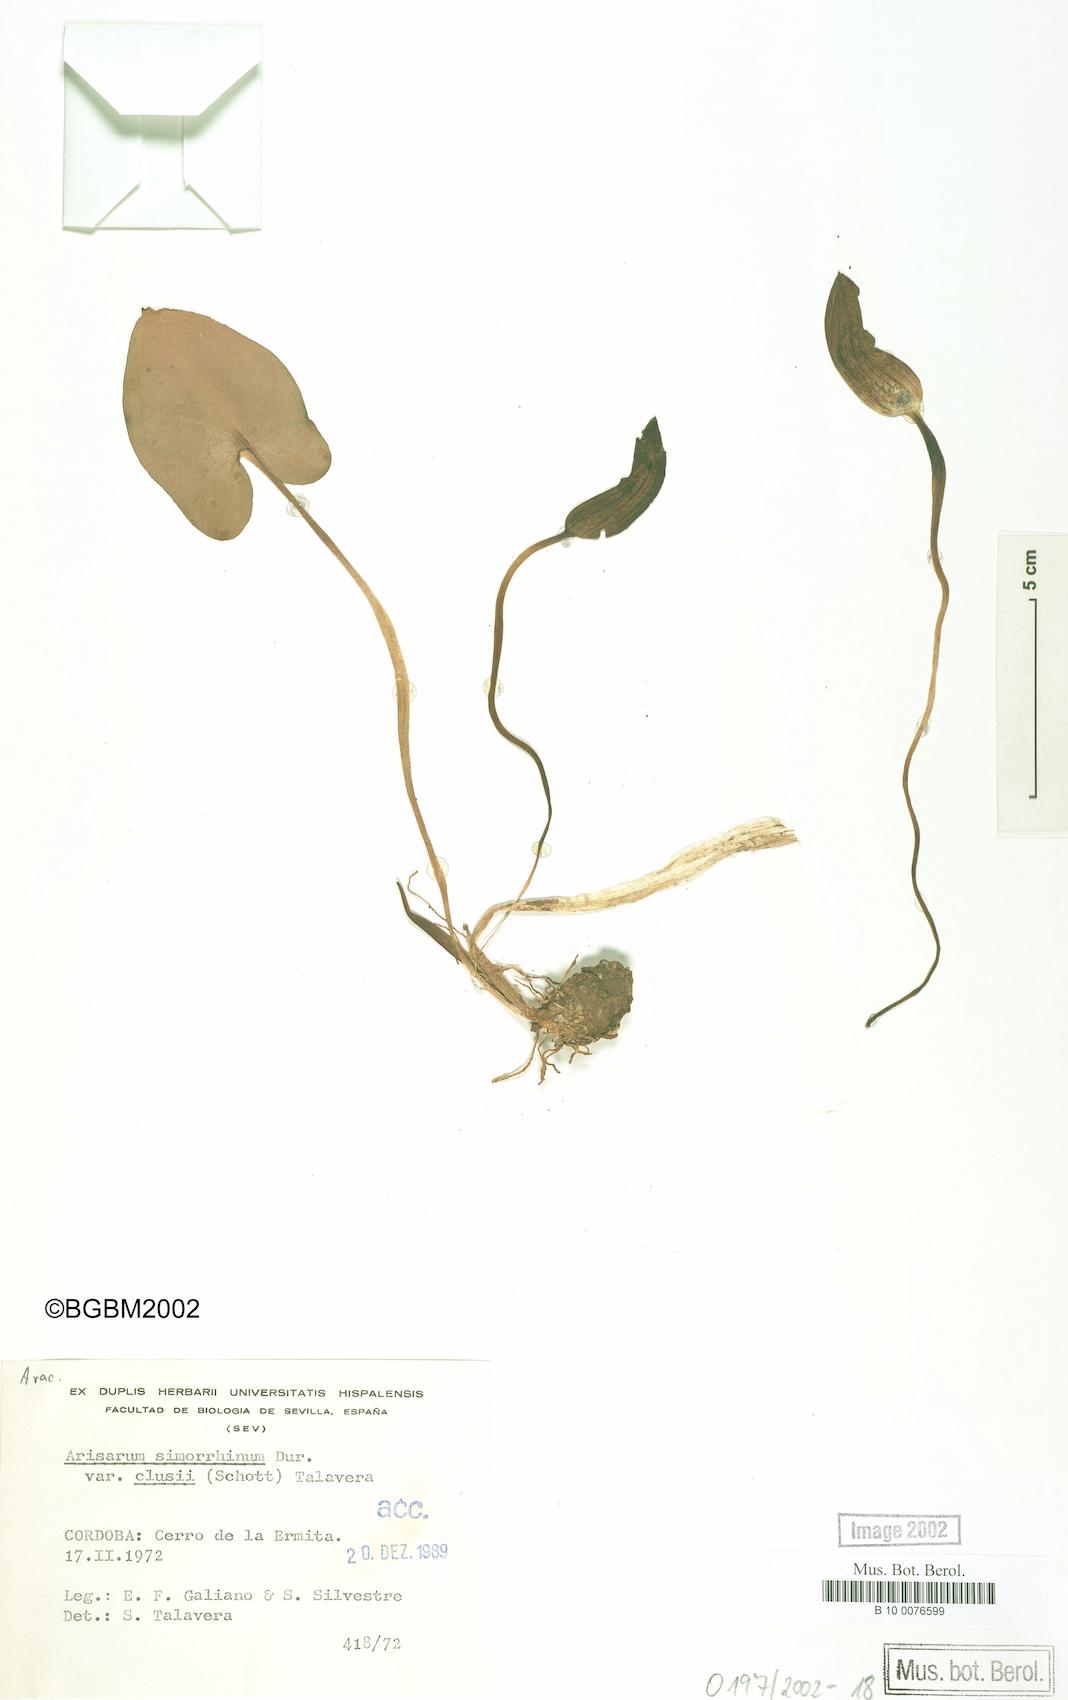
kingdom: Plantae
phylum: Tracheophyta
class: Liliopsida
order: Alismatales
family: Araceae
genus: Arisarum
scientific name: Arisarum simorrhinum
